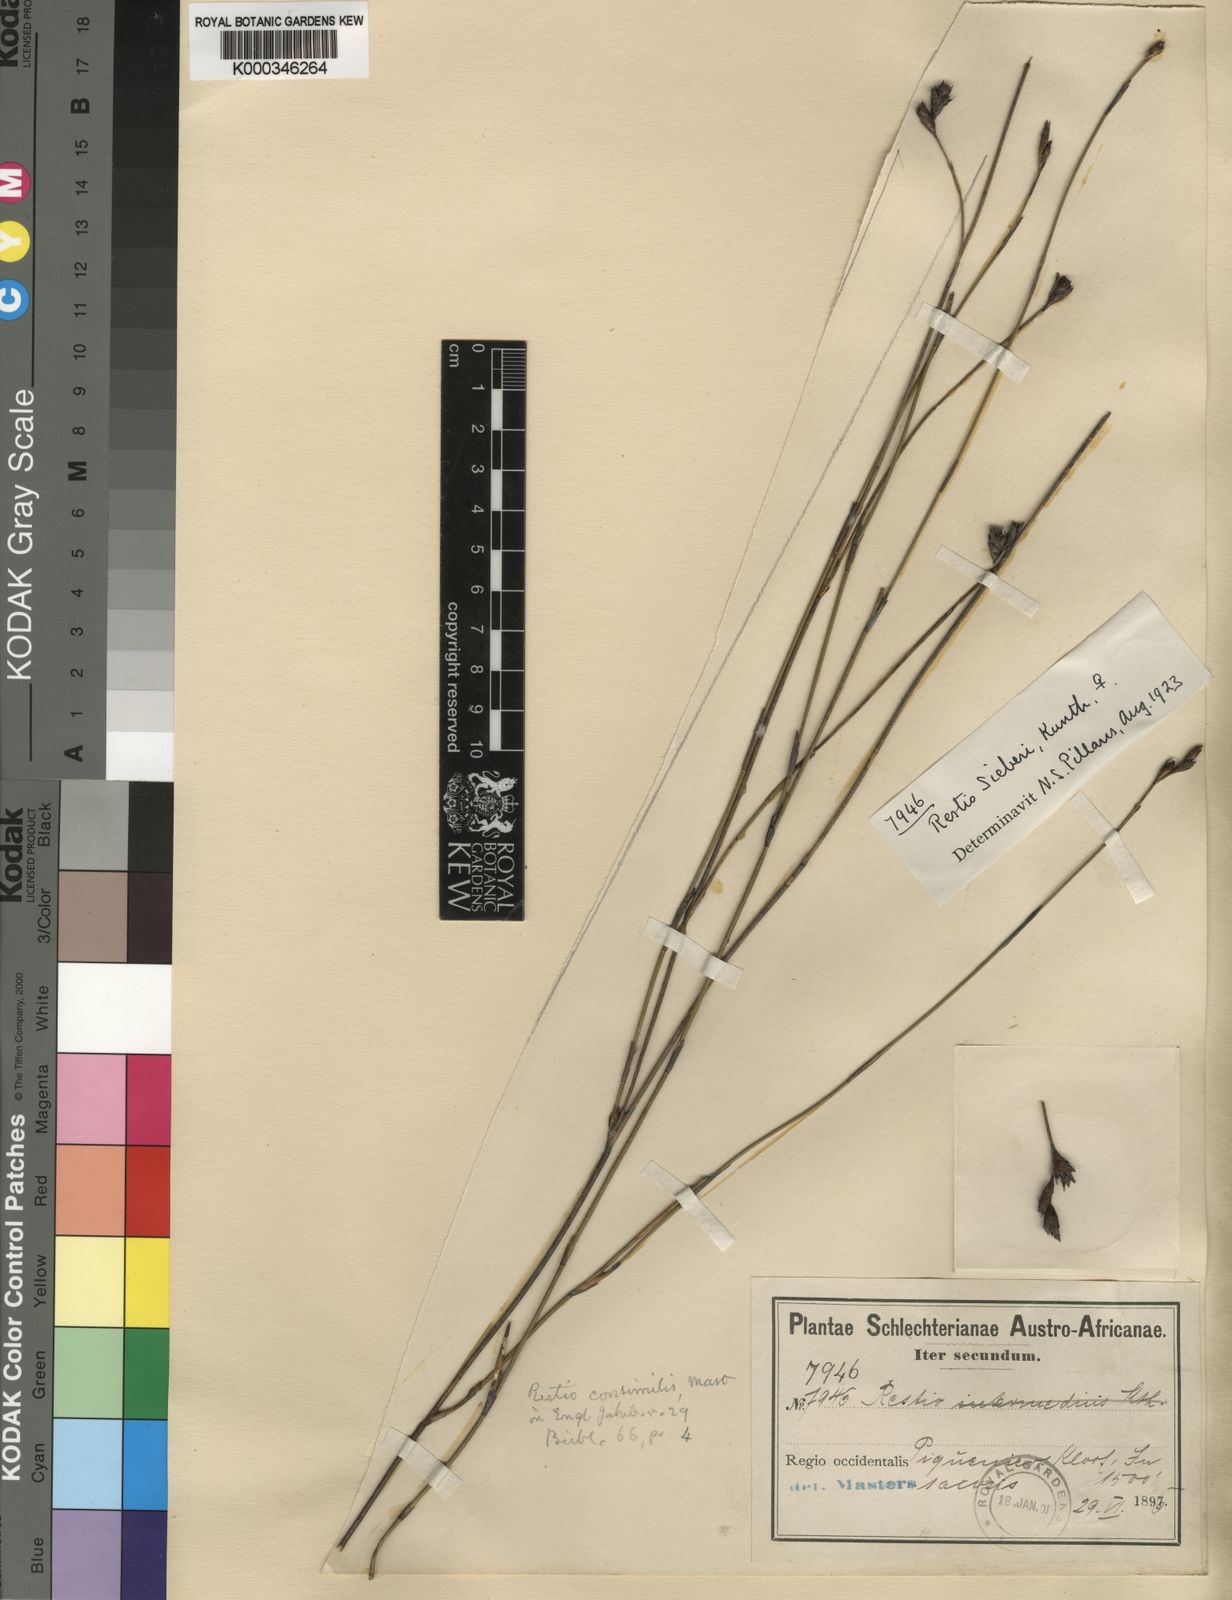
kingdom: Plantae
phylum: Tracheophyta
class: Liliopsida
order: Poales
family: Restionaceae
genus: Restio
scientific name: Restio sieberi
